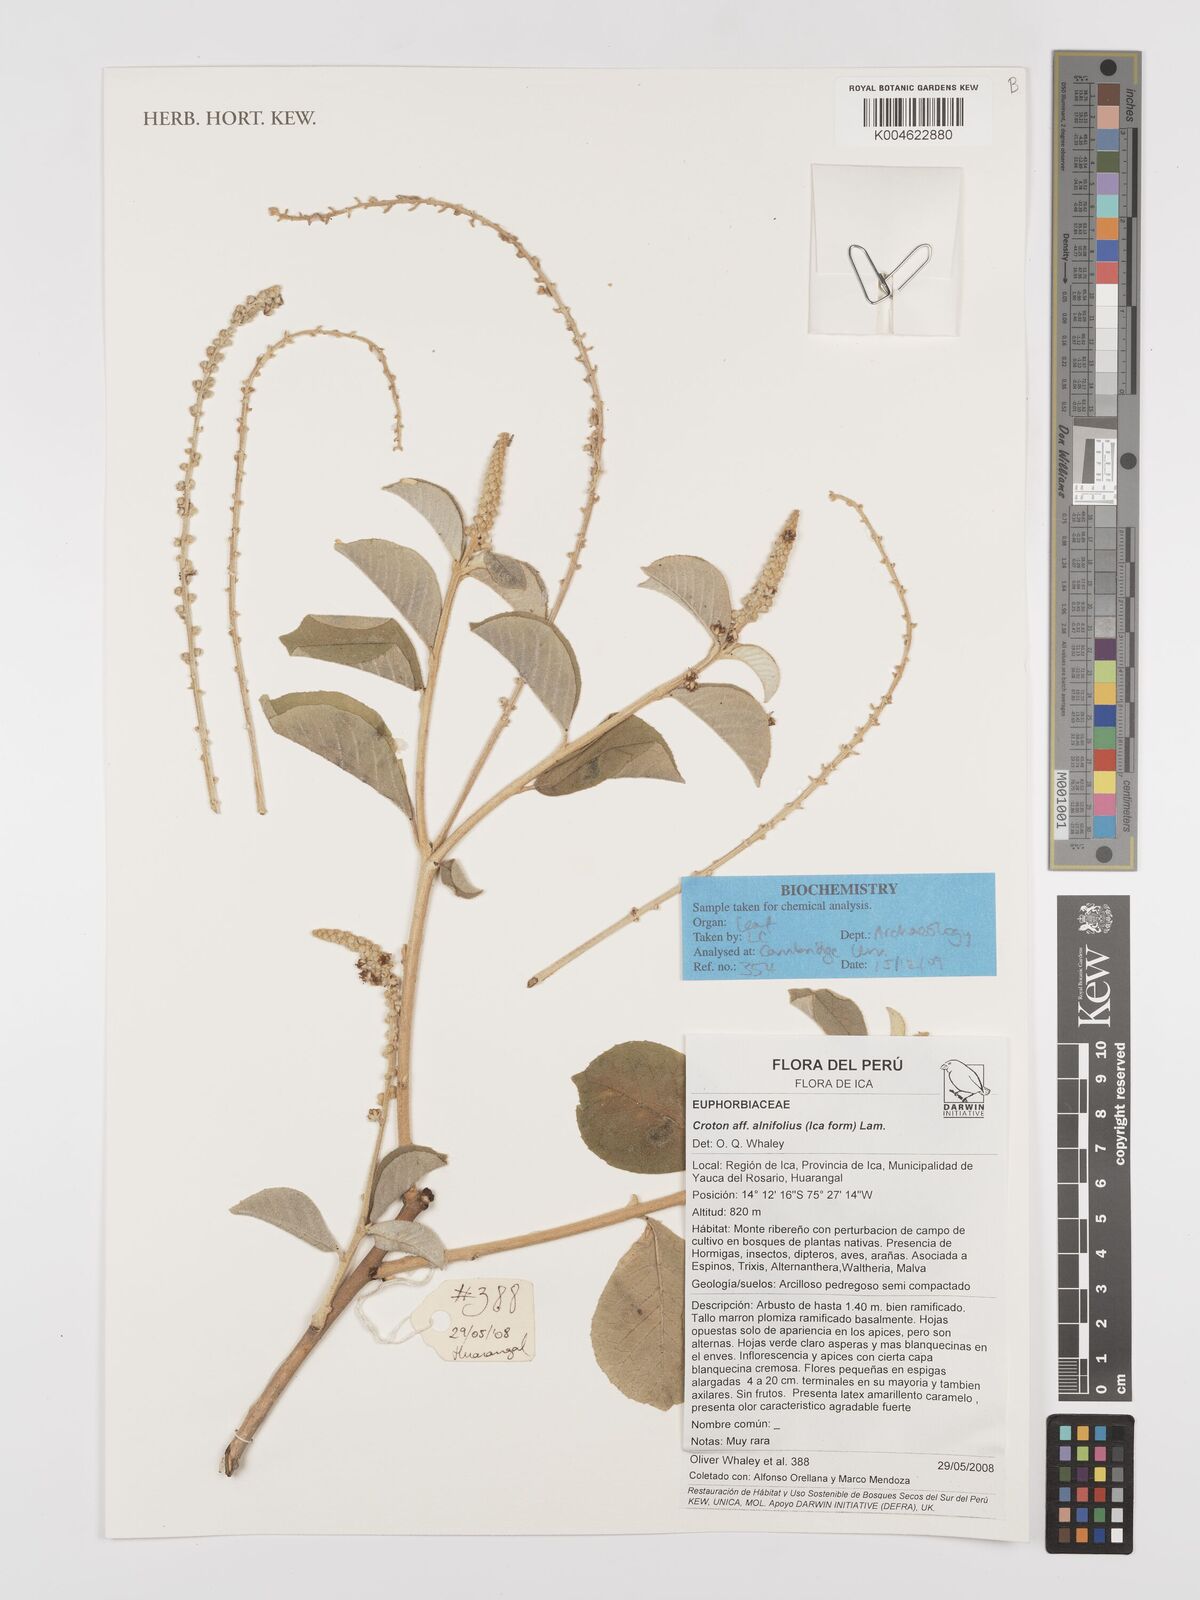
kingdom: Plantae
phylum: Tracheophyta
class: Magnoliopsida
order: Malpighiales
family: Euphorbiaceae
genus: Croton
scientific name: Croton alnifolius
